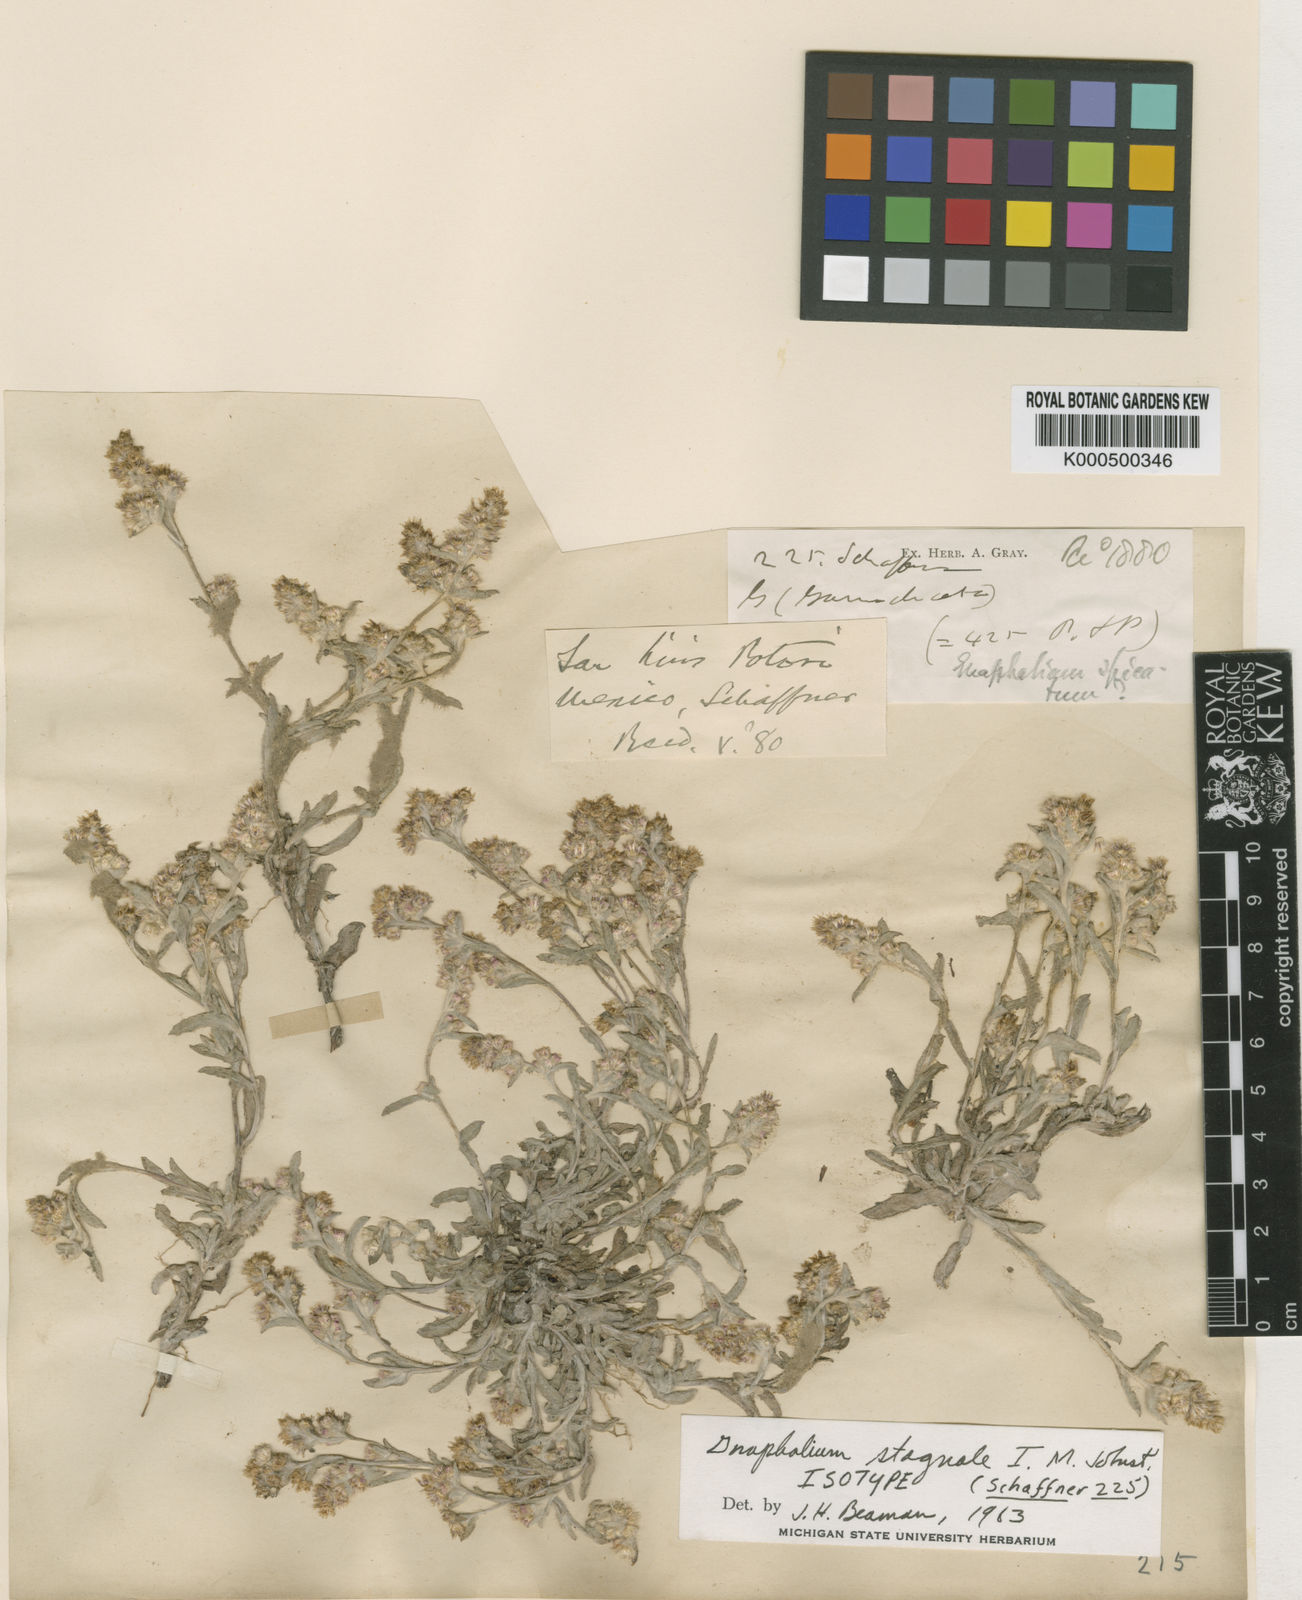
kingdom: Plantae
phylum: Tracheophyta
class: Magnoliopsida
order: Asterales
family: Asteraceae
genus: Gamochaeta
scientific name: Gamochaeta stagnalis
